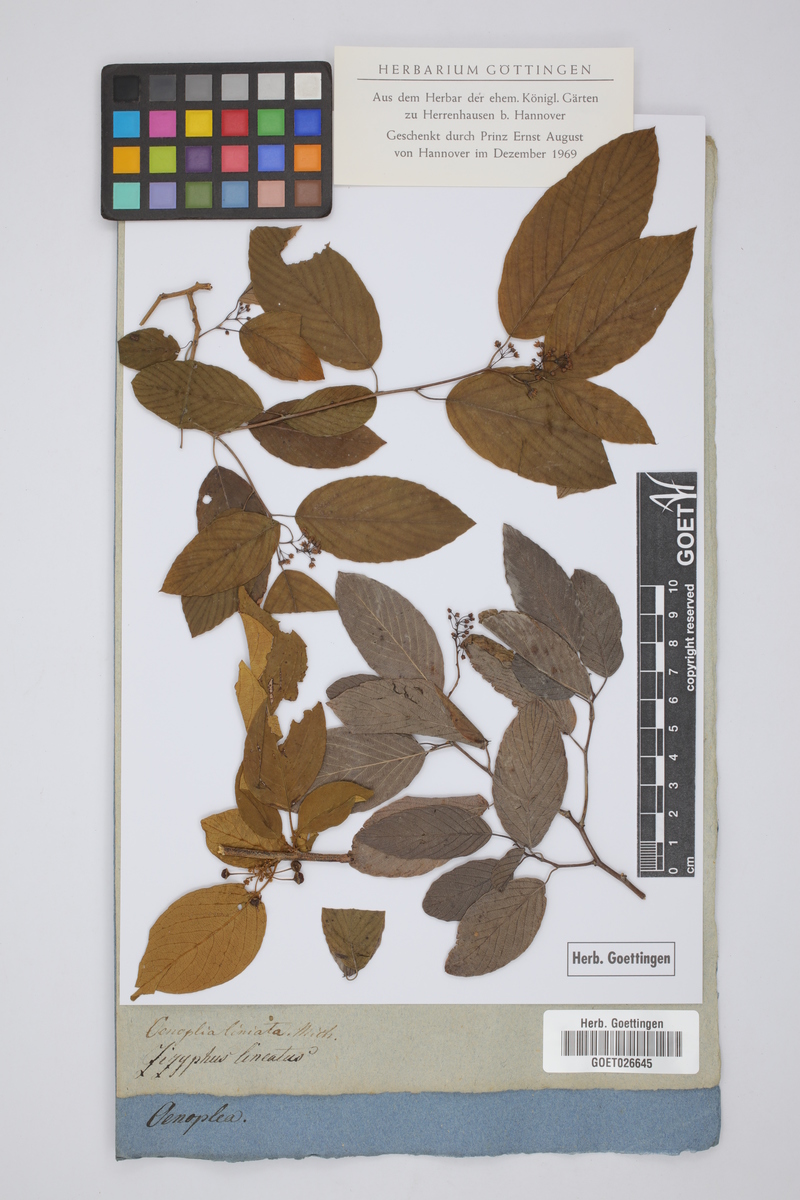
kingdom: Plantae
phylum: Tracheophyta
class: Magnoliopsida
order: Rosales
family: Rhamnaceae
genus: Berchemia
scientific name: Berchemia lineata
